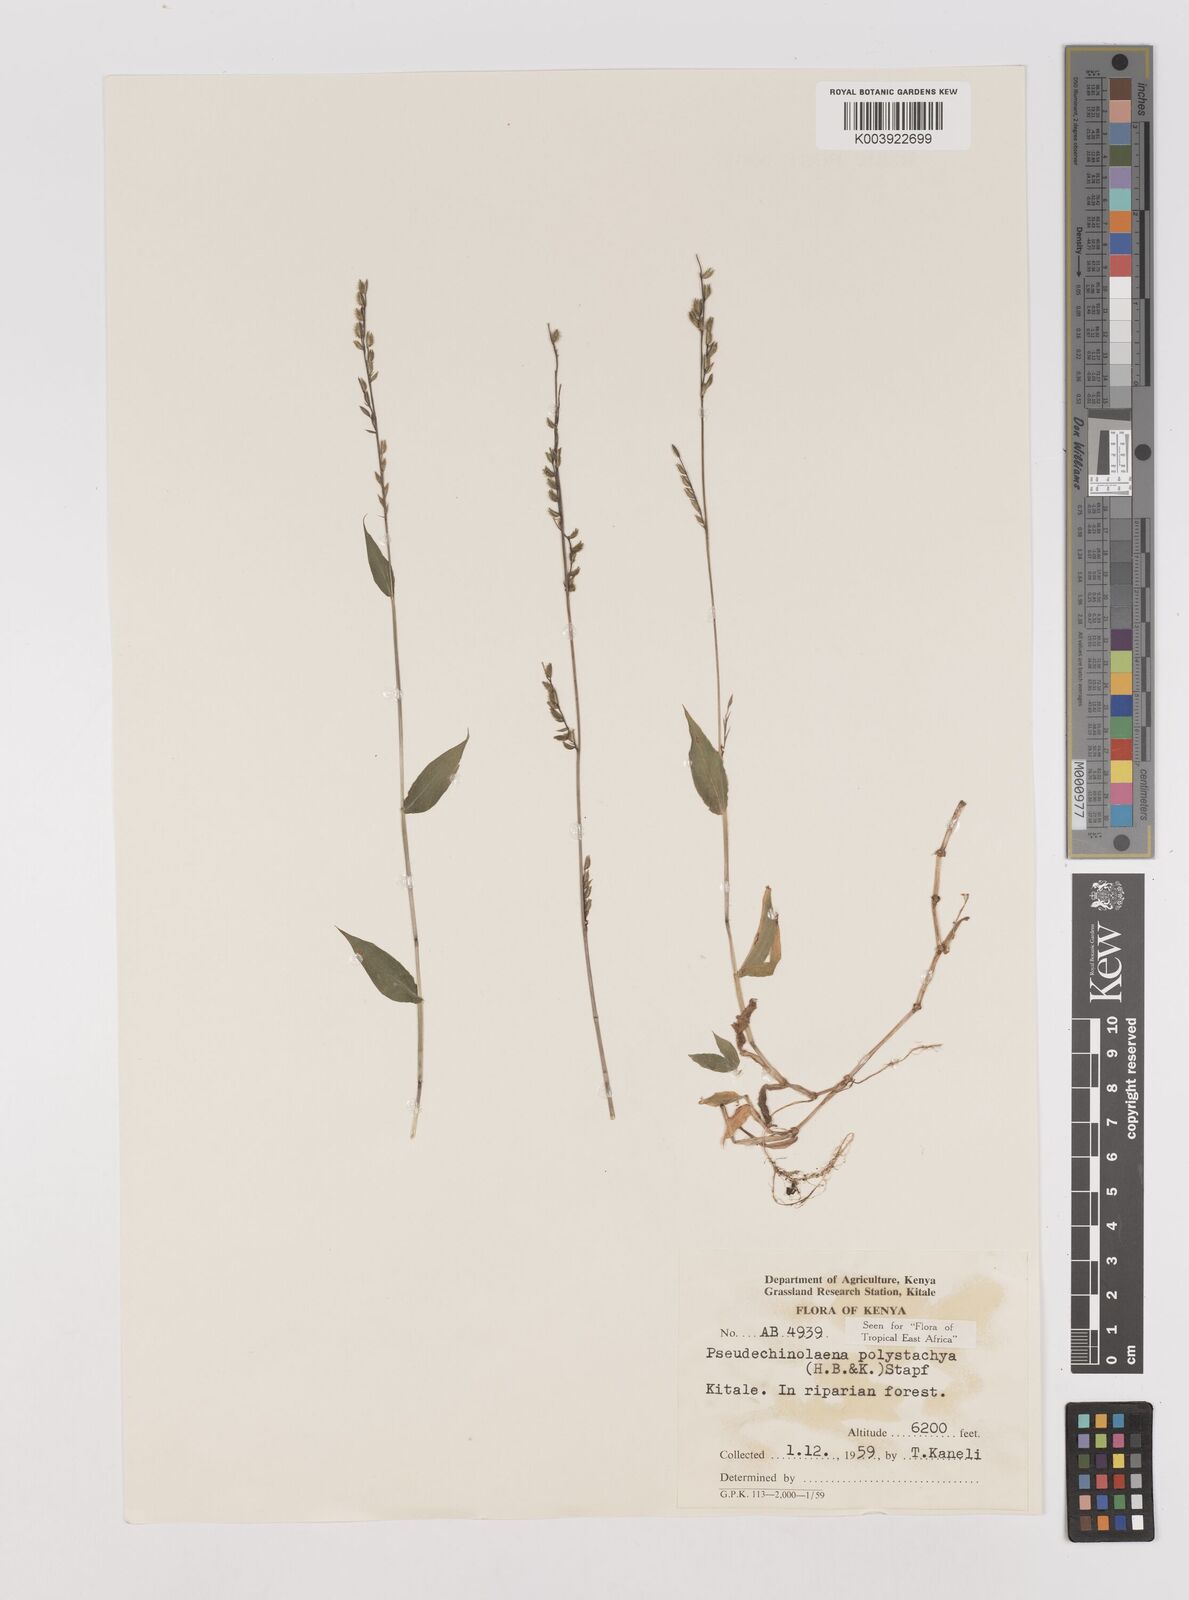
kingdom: Plantae
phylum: Tracheophyta
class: Liliopsida
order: Poales
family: Poaceae
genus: Pseudechinolaena
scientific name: Pseudechinolaena polystachya
